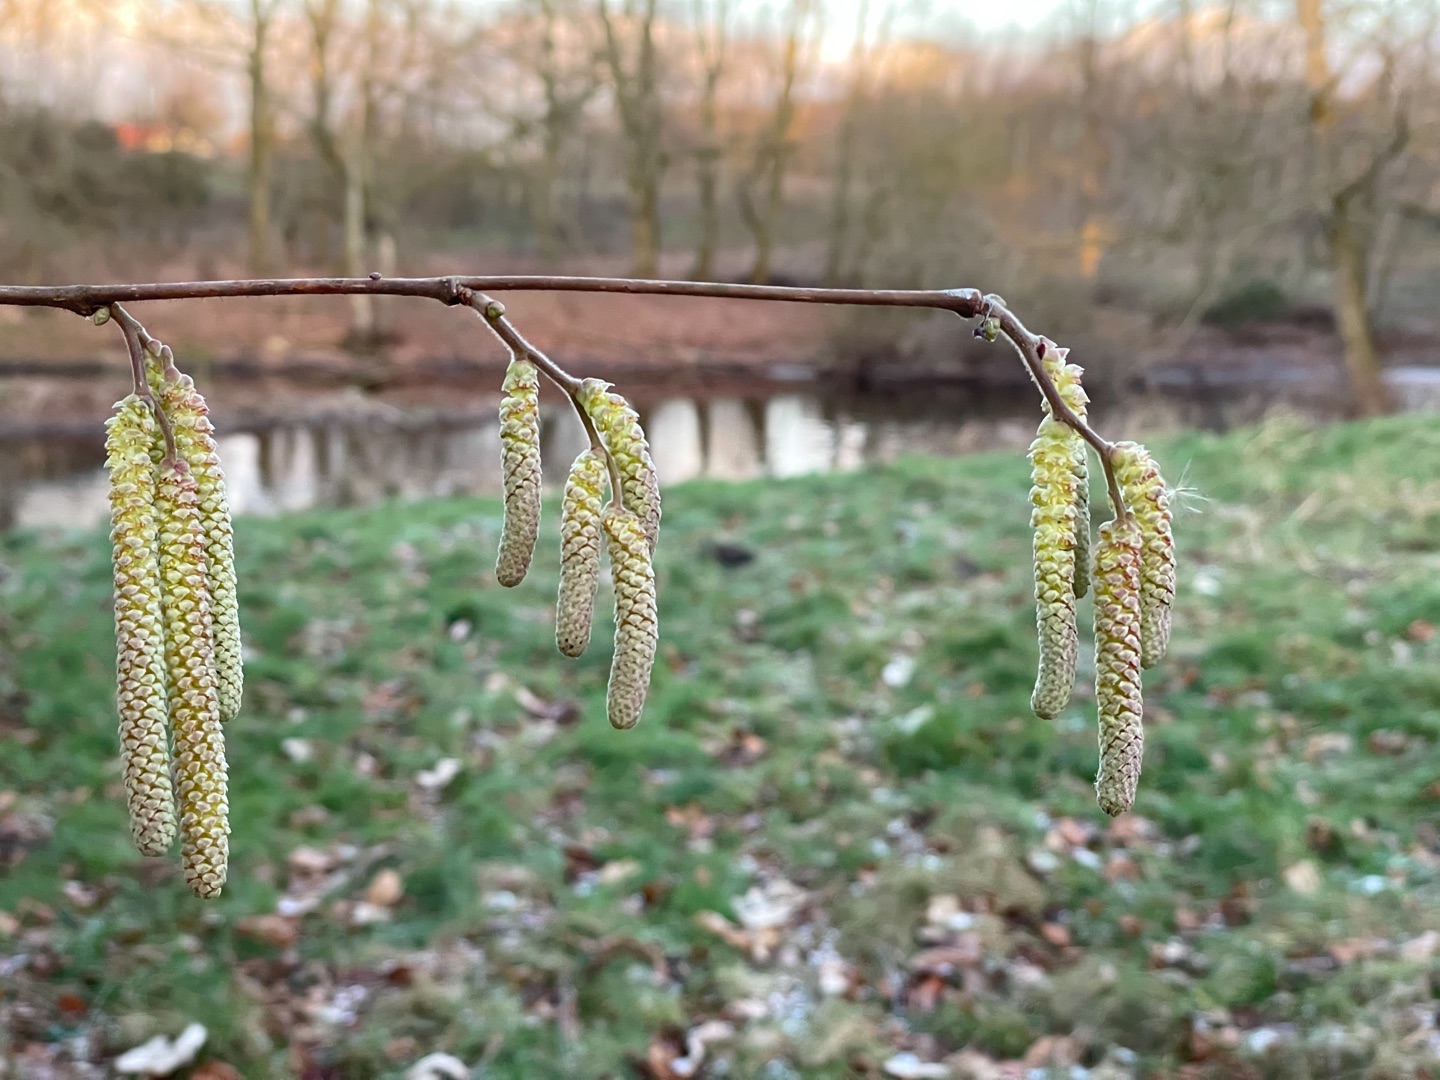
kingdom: Plantae
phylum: Tracheophyta
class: Magnoliopsida
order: Fagales
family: Betulaceae
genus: Corylus
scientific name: Corylus avellana
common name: Hassel
